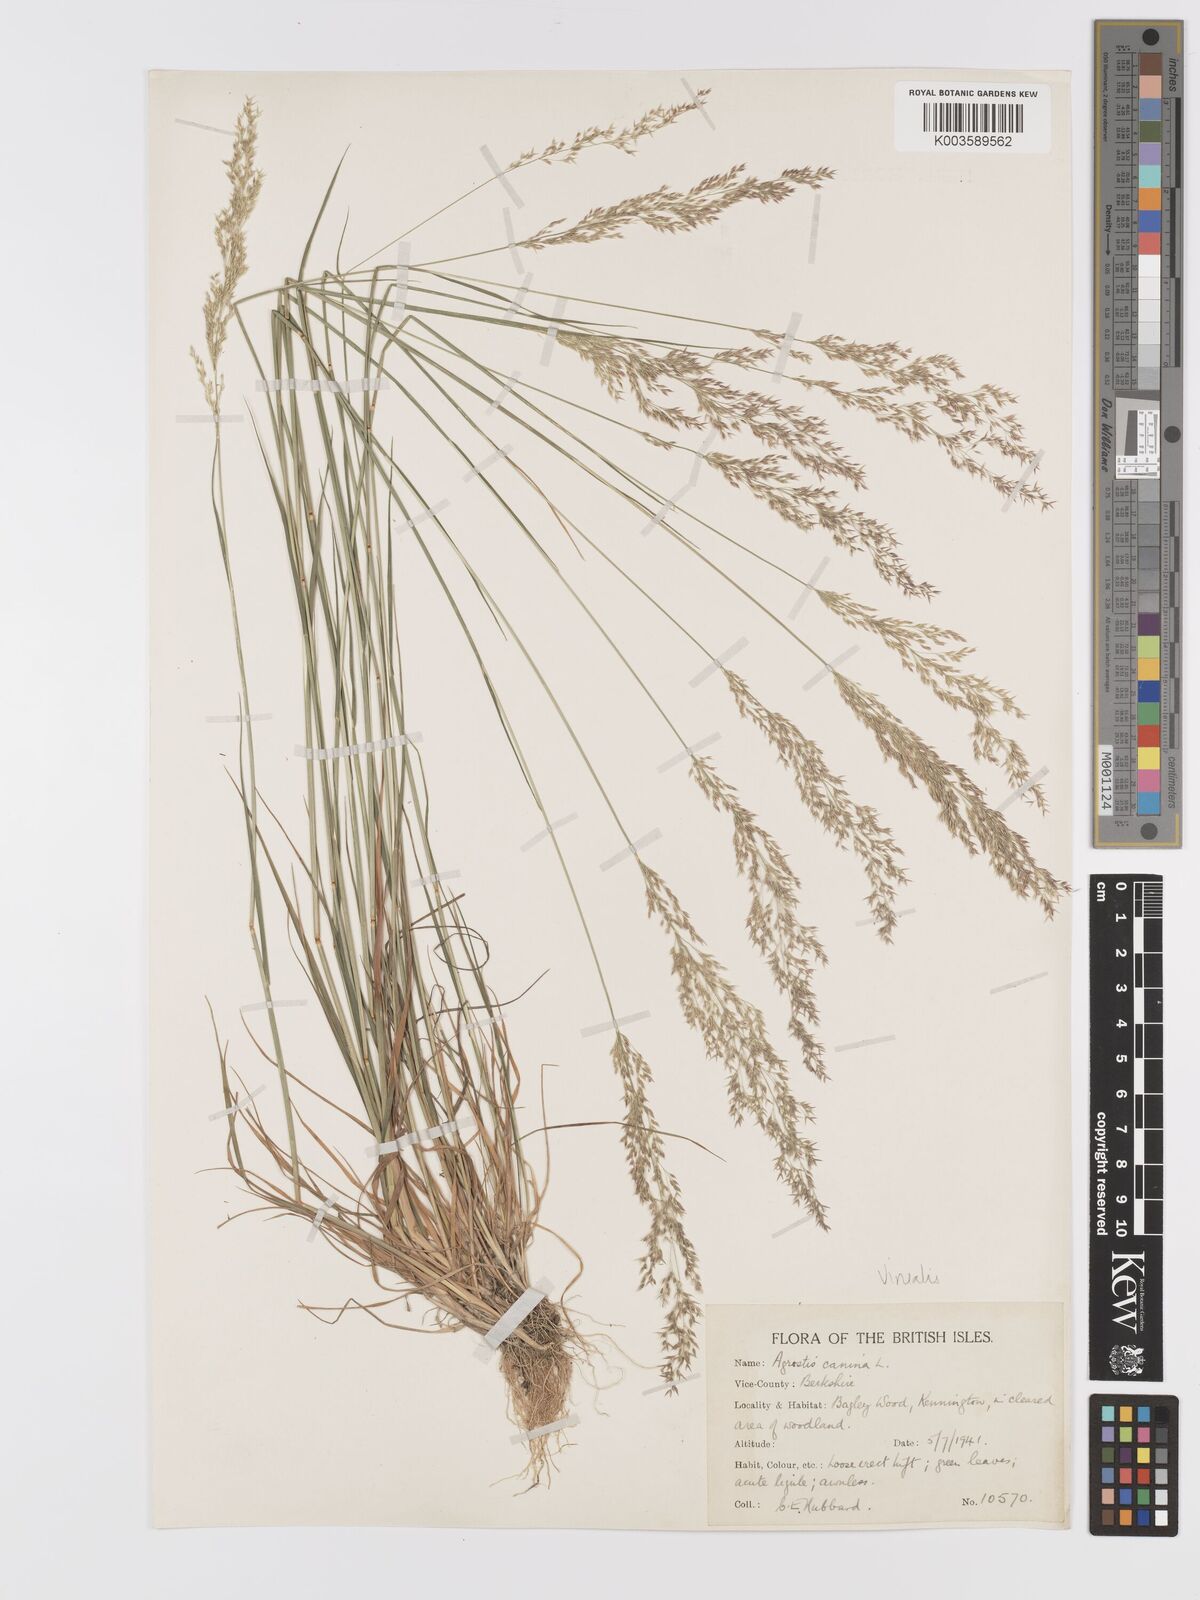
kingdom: Plantae
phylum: Tracheophyta
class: Liliopsida
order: Poales
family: Poaceae
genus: Agrostis
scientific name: Agrostis
